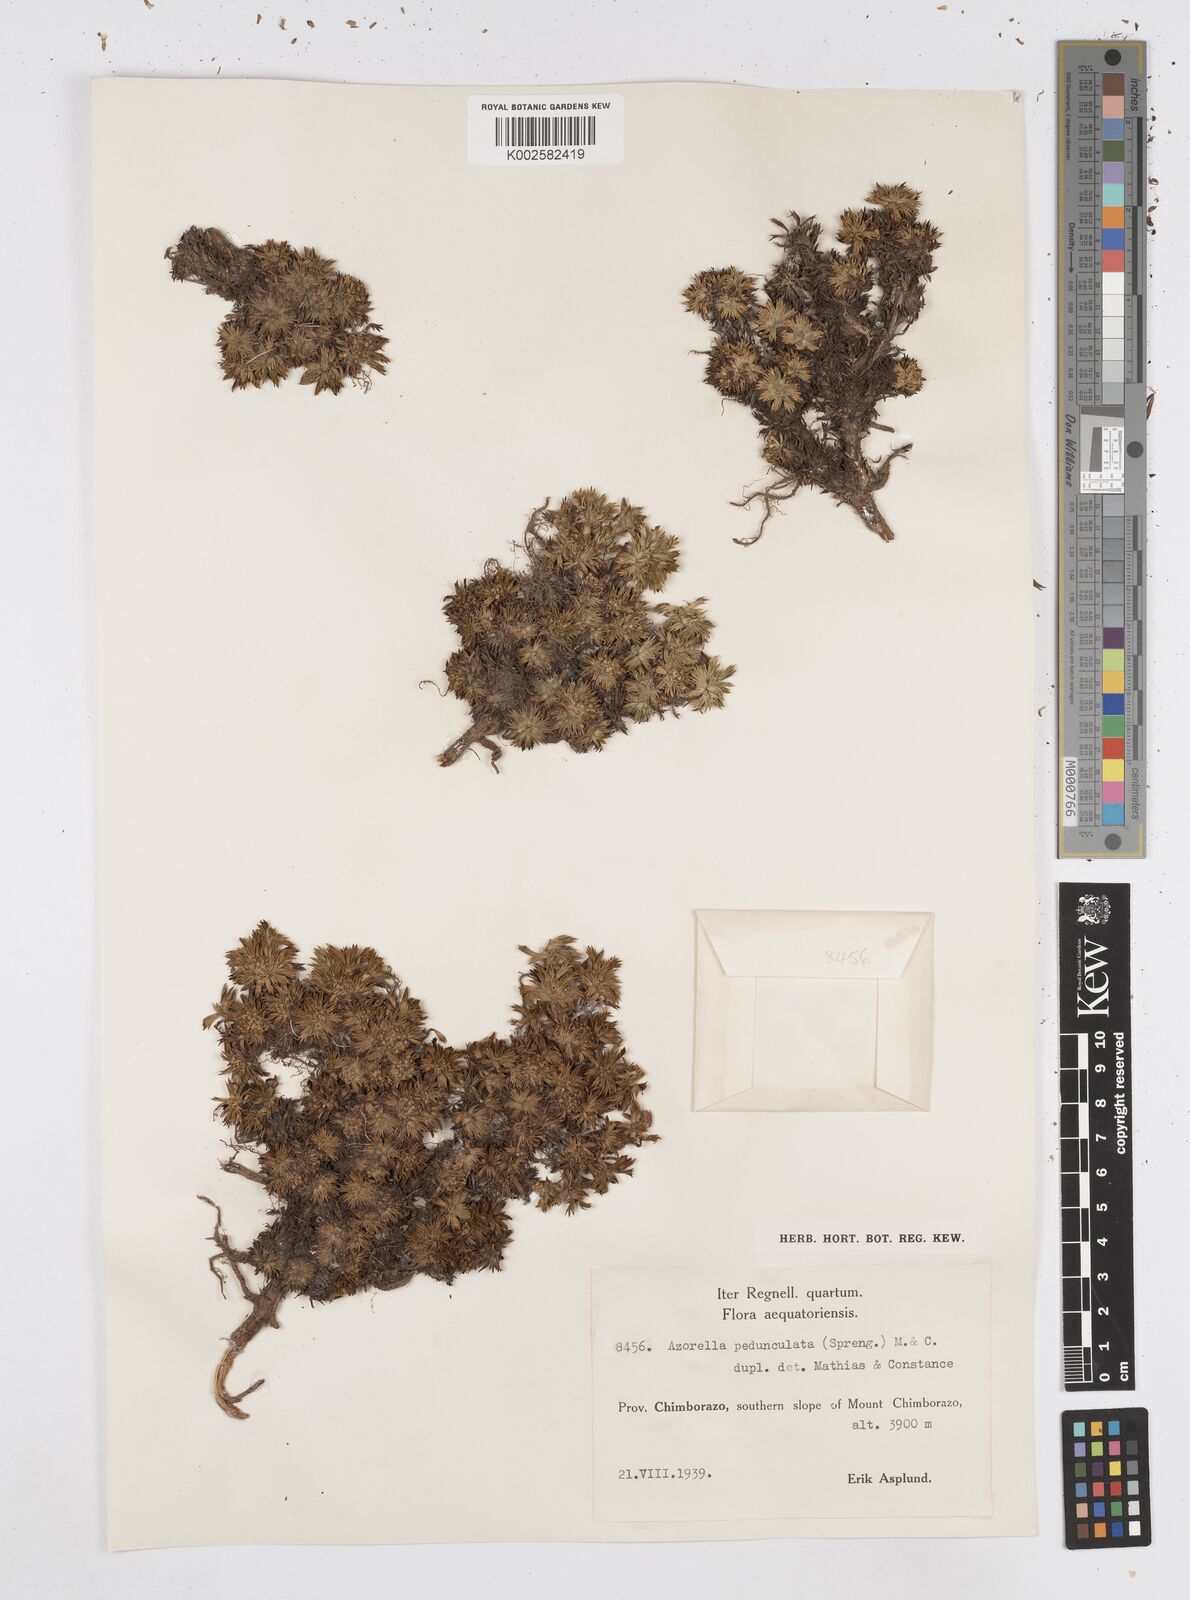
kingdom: Plantae
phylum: Tracheophyta
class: Magnoliopsida
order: Apiales
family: Apiaceae
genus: Azorella
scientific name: Azorella pedunculata
